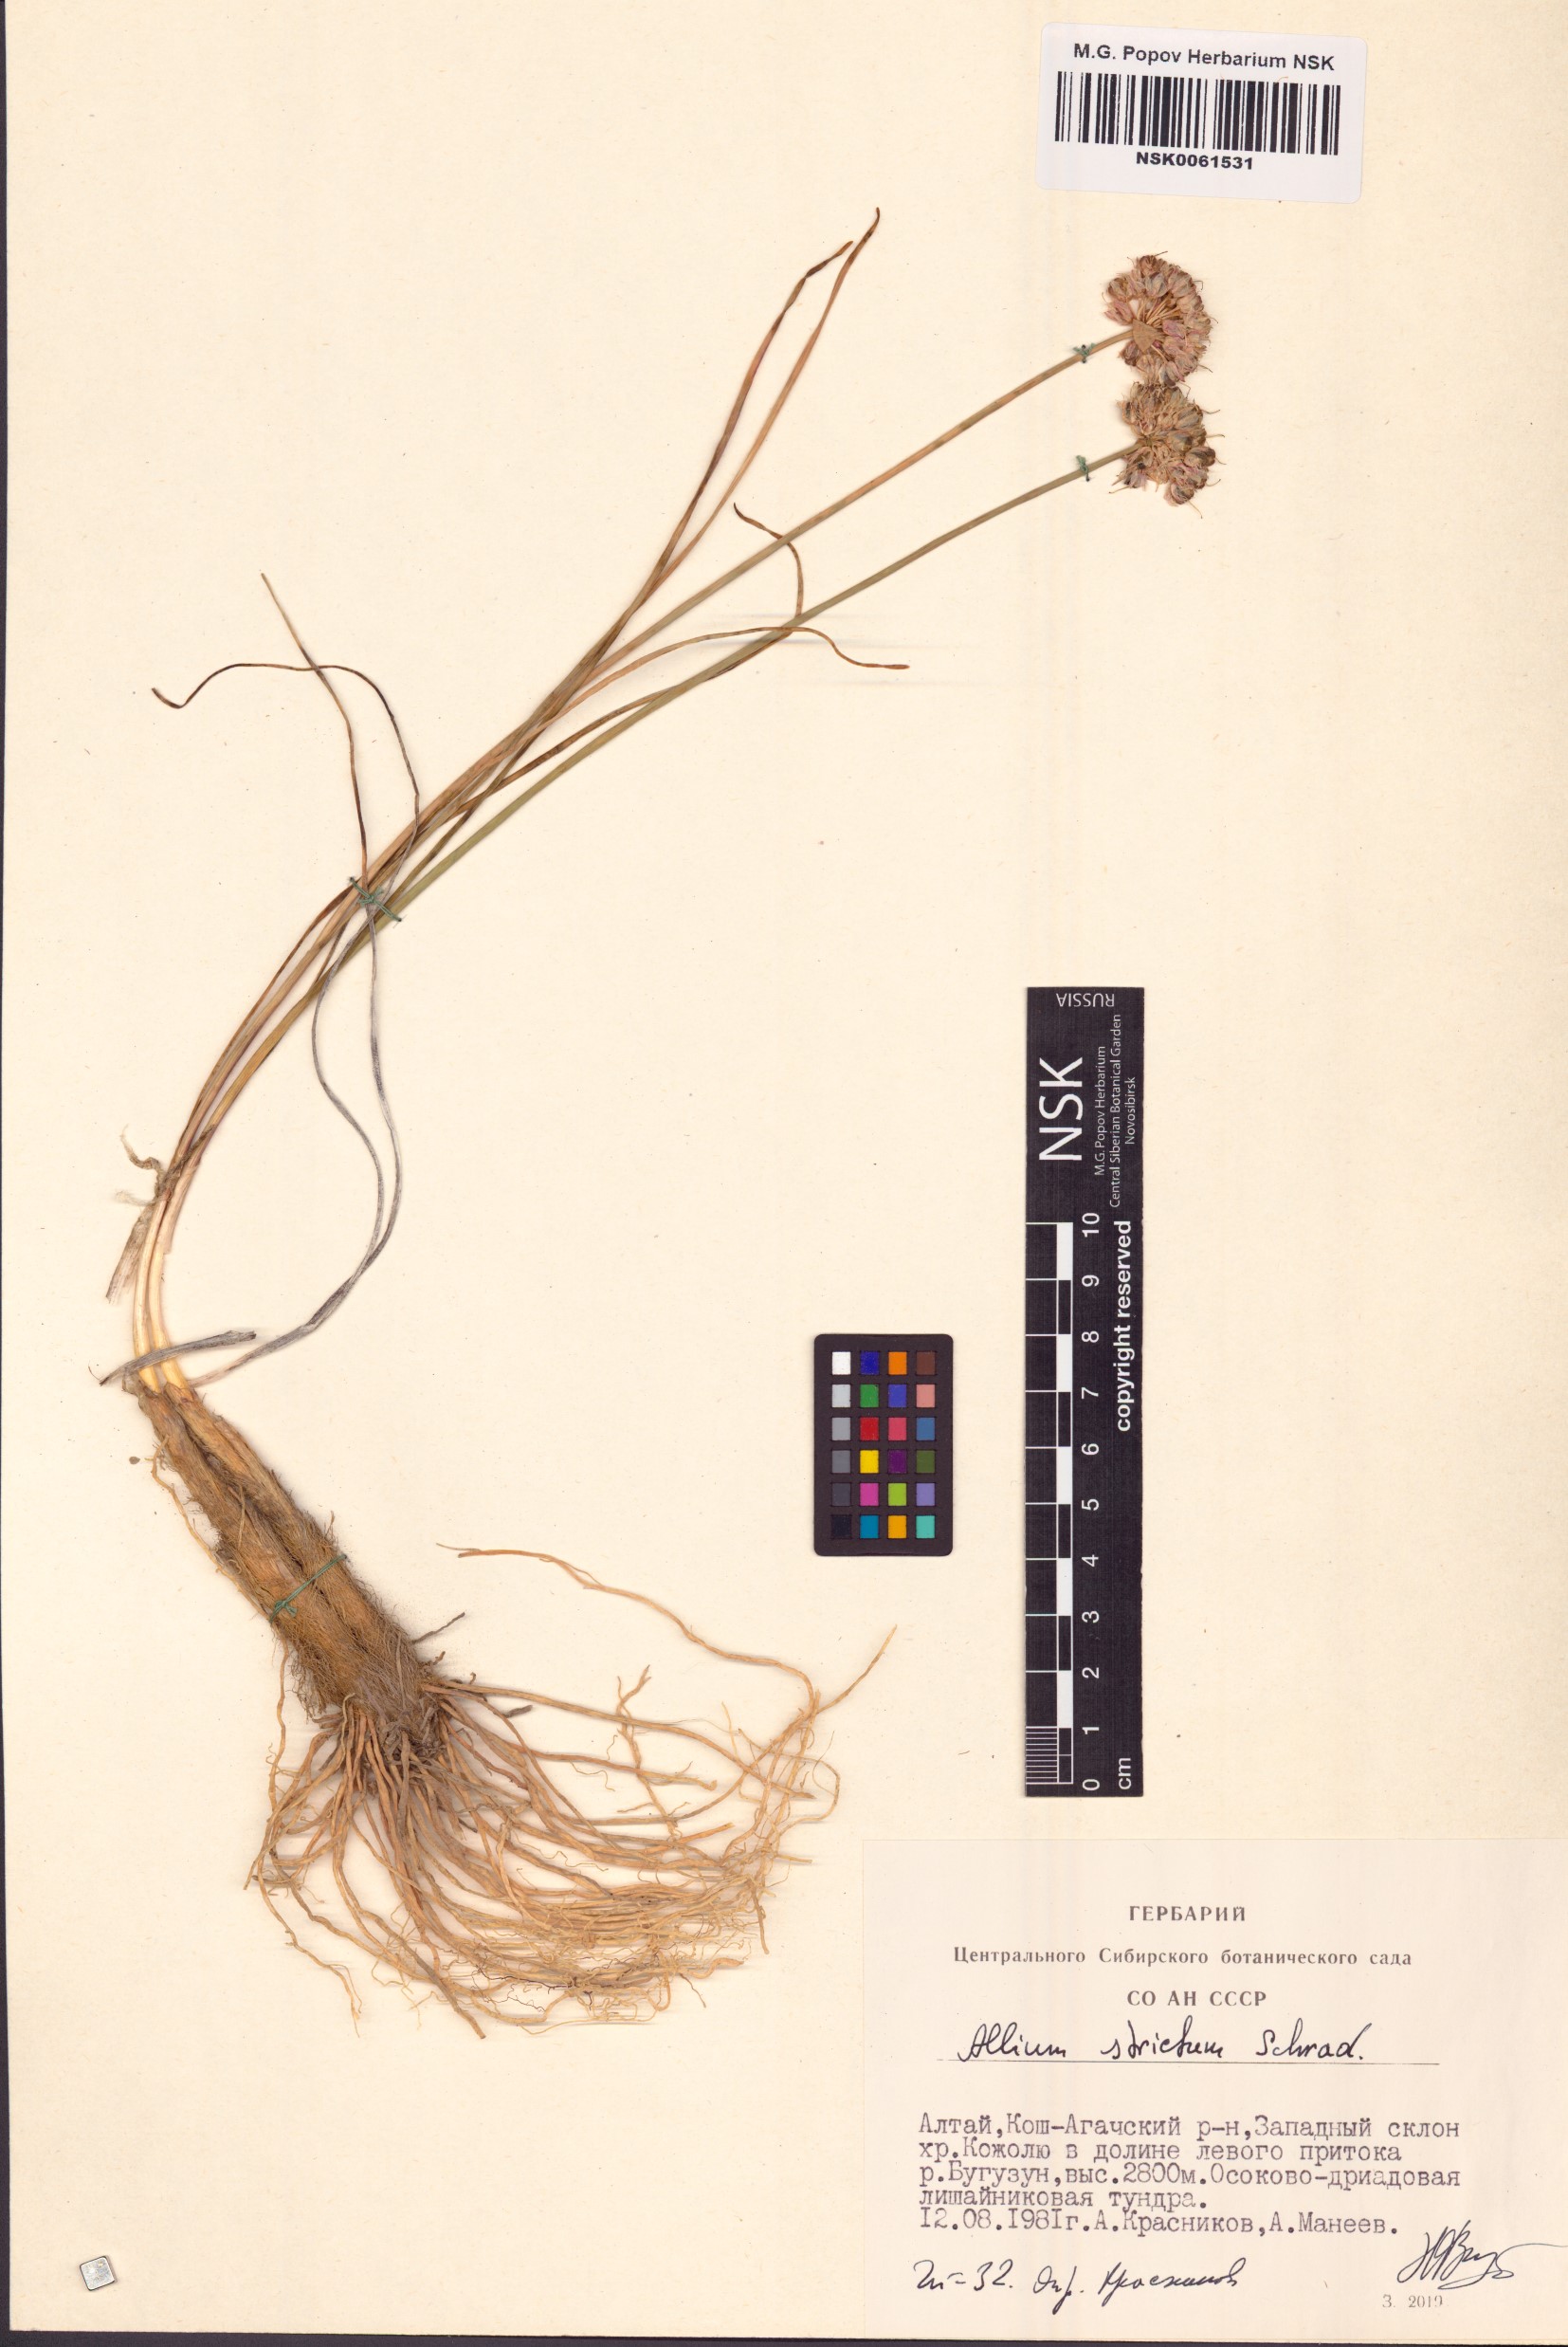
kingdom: Plantae
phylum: Tracheophyta
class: Liliopsida
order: Asparagales
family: Amaryllidaceae
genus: Allium
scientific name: Allium strictum
